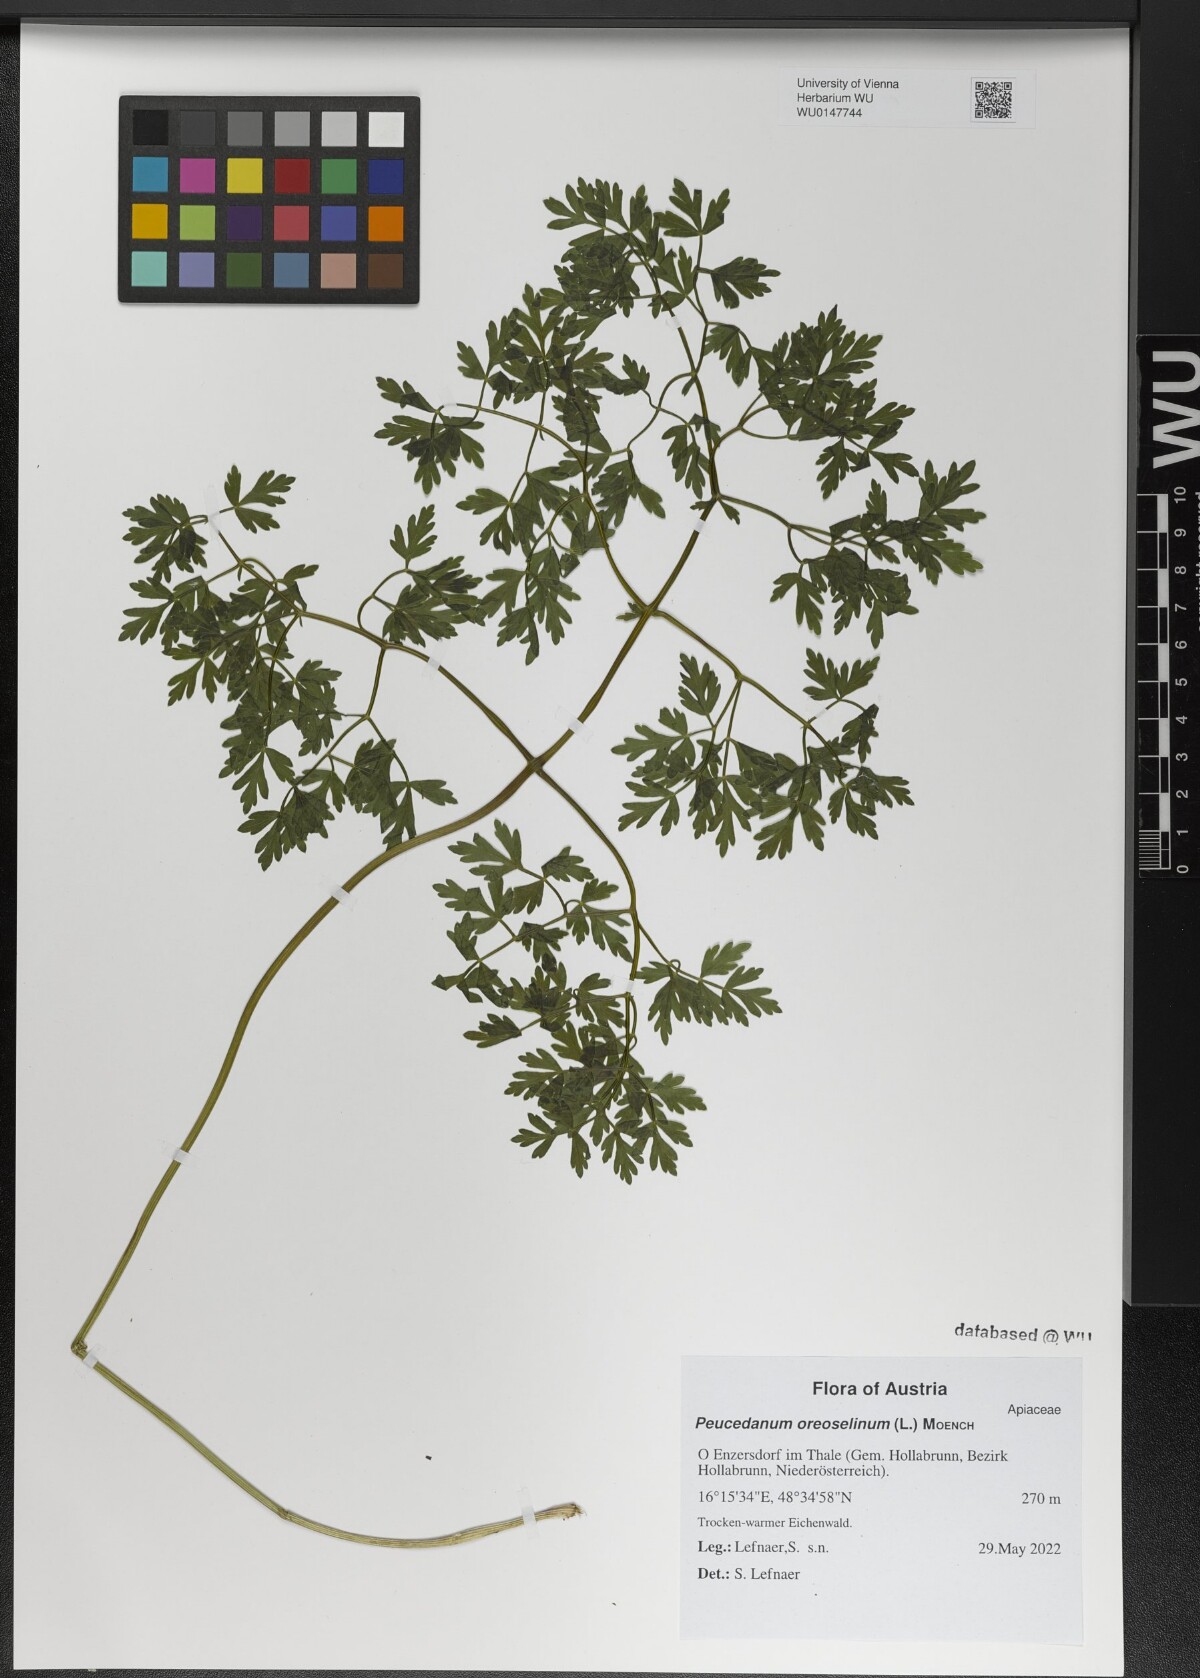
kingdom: Plantae
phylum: Tracheophyta
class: Magnoliopsida
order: Apiales
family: Apiaceae
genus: Oreoselinum
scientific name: Oreoselinum nigrum
